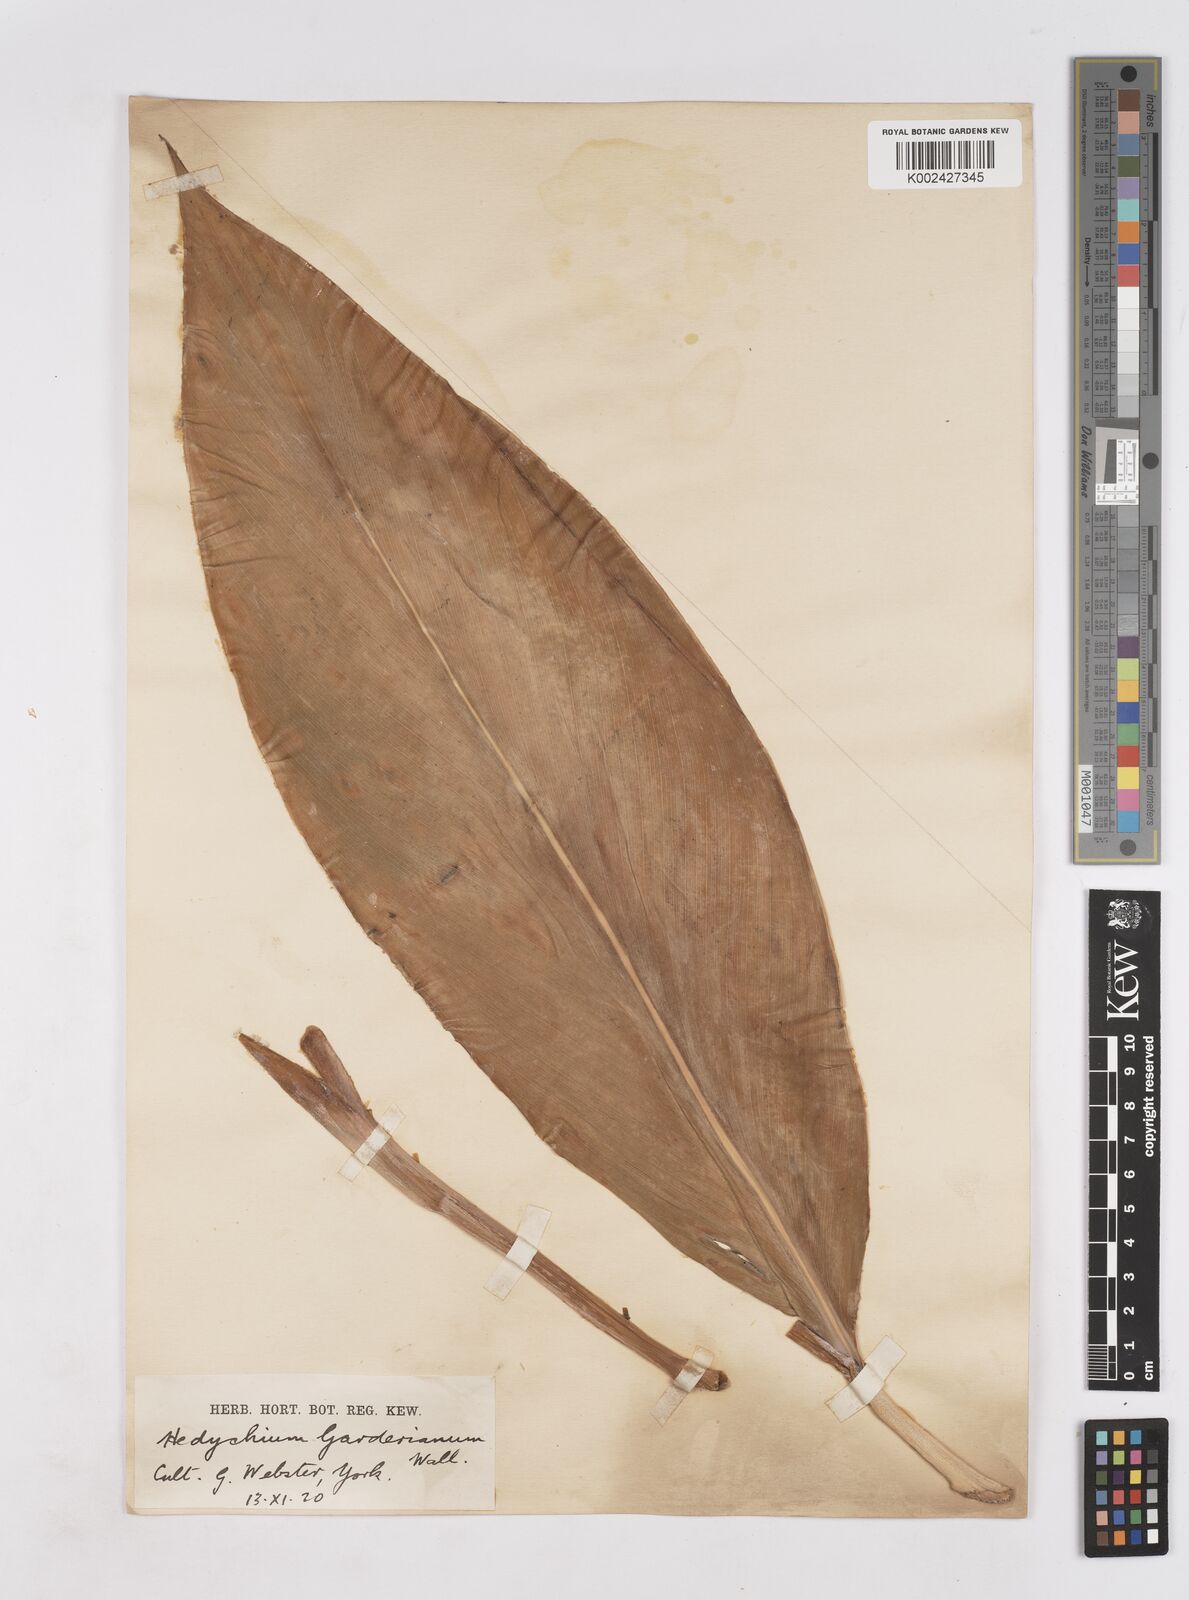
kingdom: Plantae
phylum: Tracheophyta
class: Liliopsida
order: Zingiberales
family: Zingiberaceae
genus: Hedychium
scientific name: Hedychium gardnerianum
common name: Himalayan ginger
